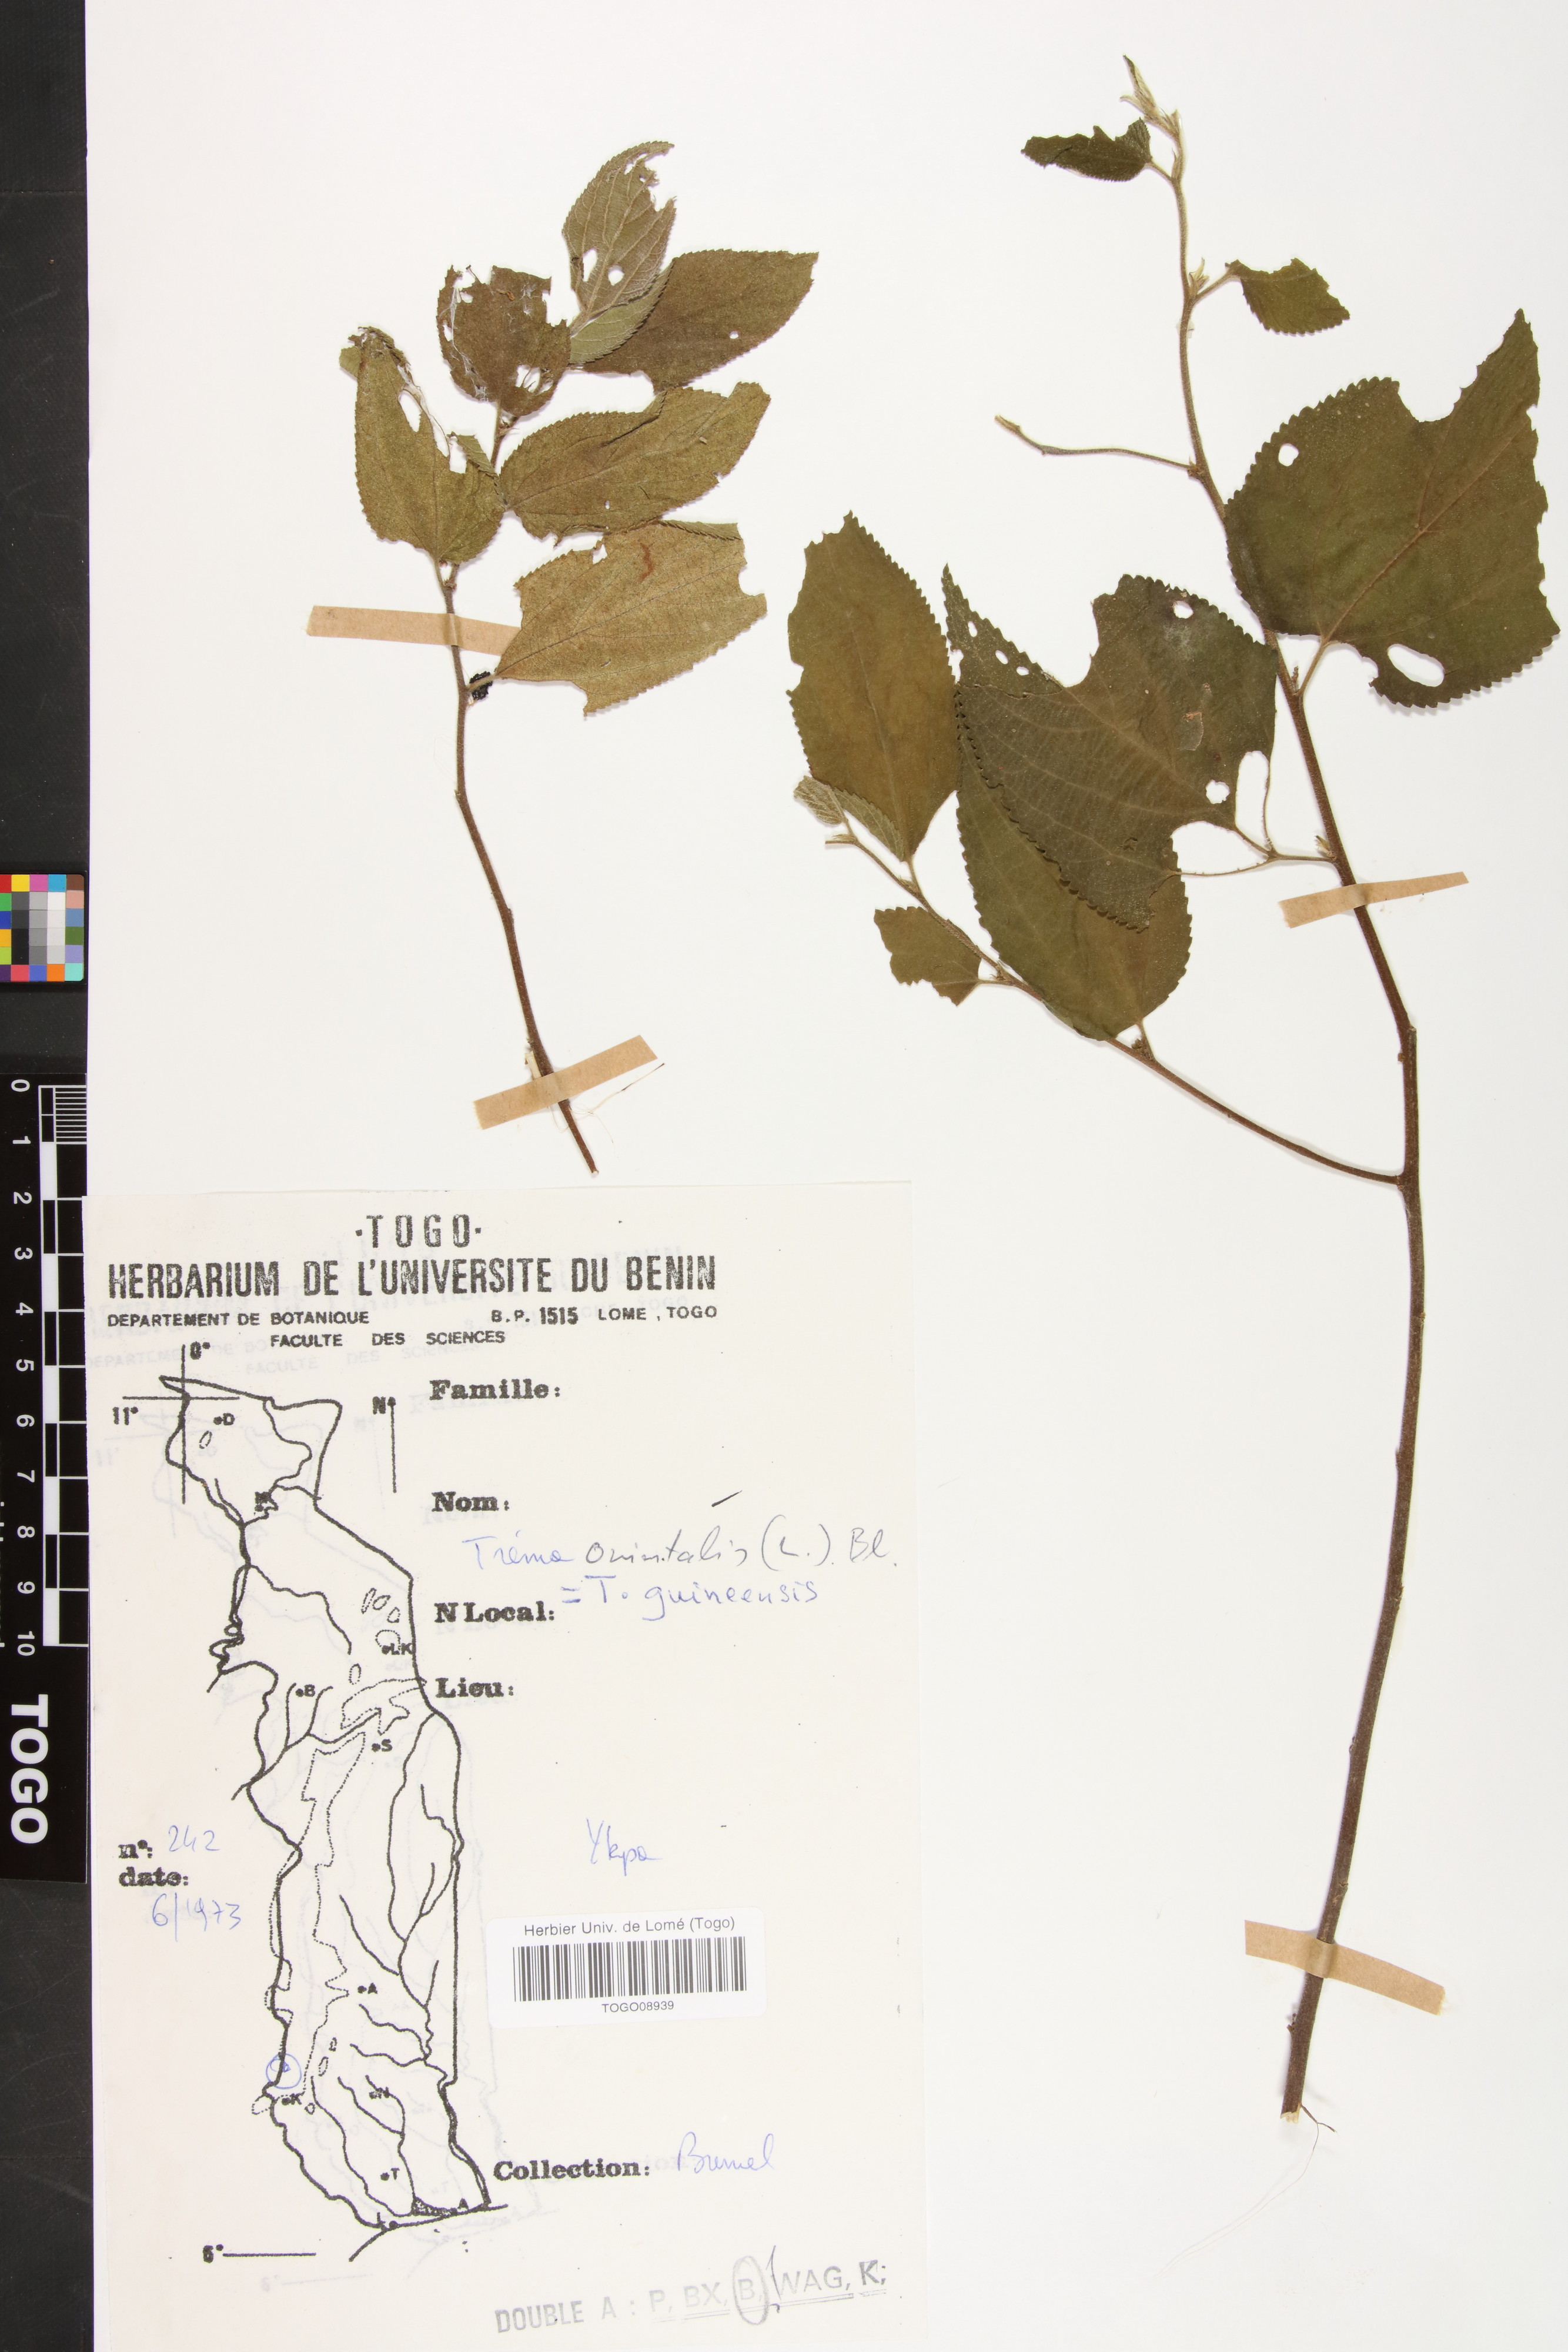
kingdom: Plantae
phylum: Tracheophyta
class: Magnoliopsida
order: Rosales
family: Cannabaceae
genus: Trema
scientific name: Trema orientale
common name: Indian charcoal tree
